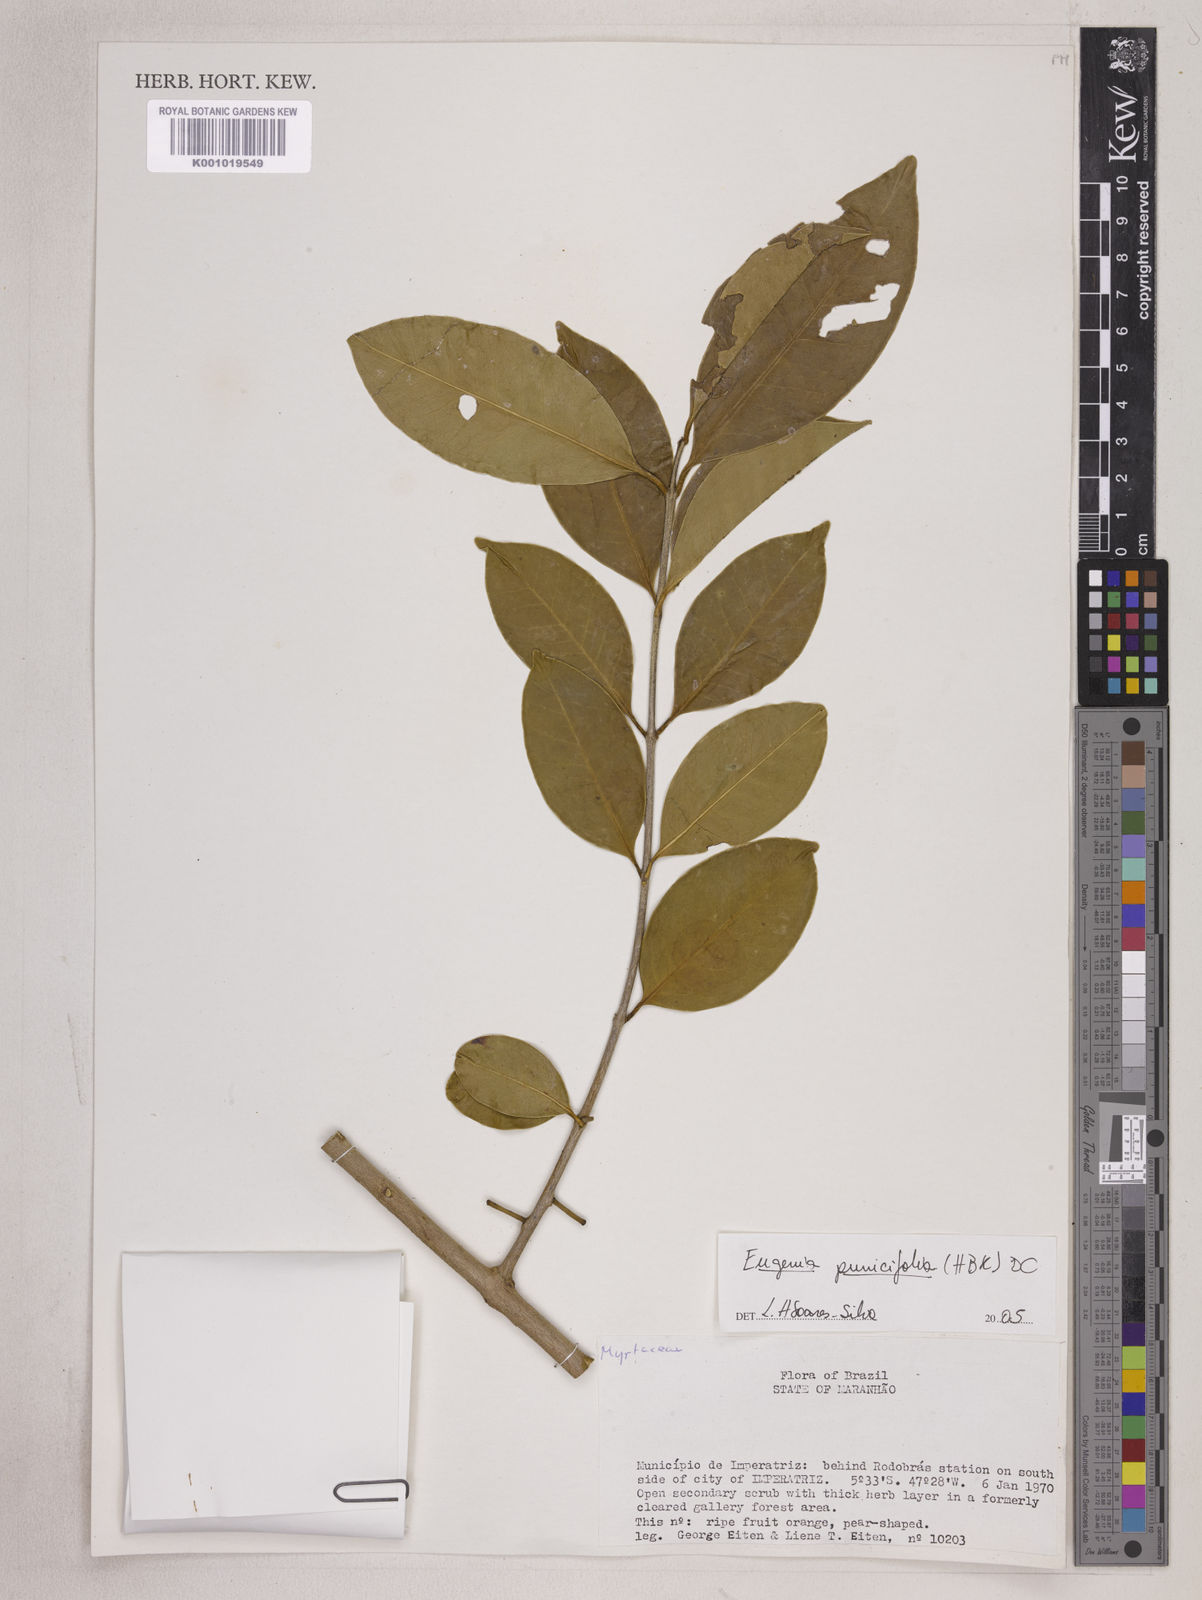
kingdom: Plantae
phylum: Tracheophyta
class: Magnoliopsida
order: Myrtales
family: Myrtaceae
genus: Eugenia
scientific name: Eugenia punicifolia
